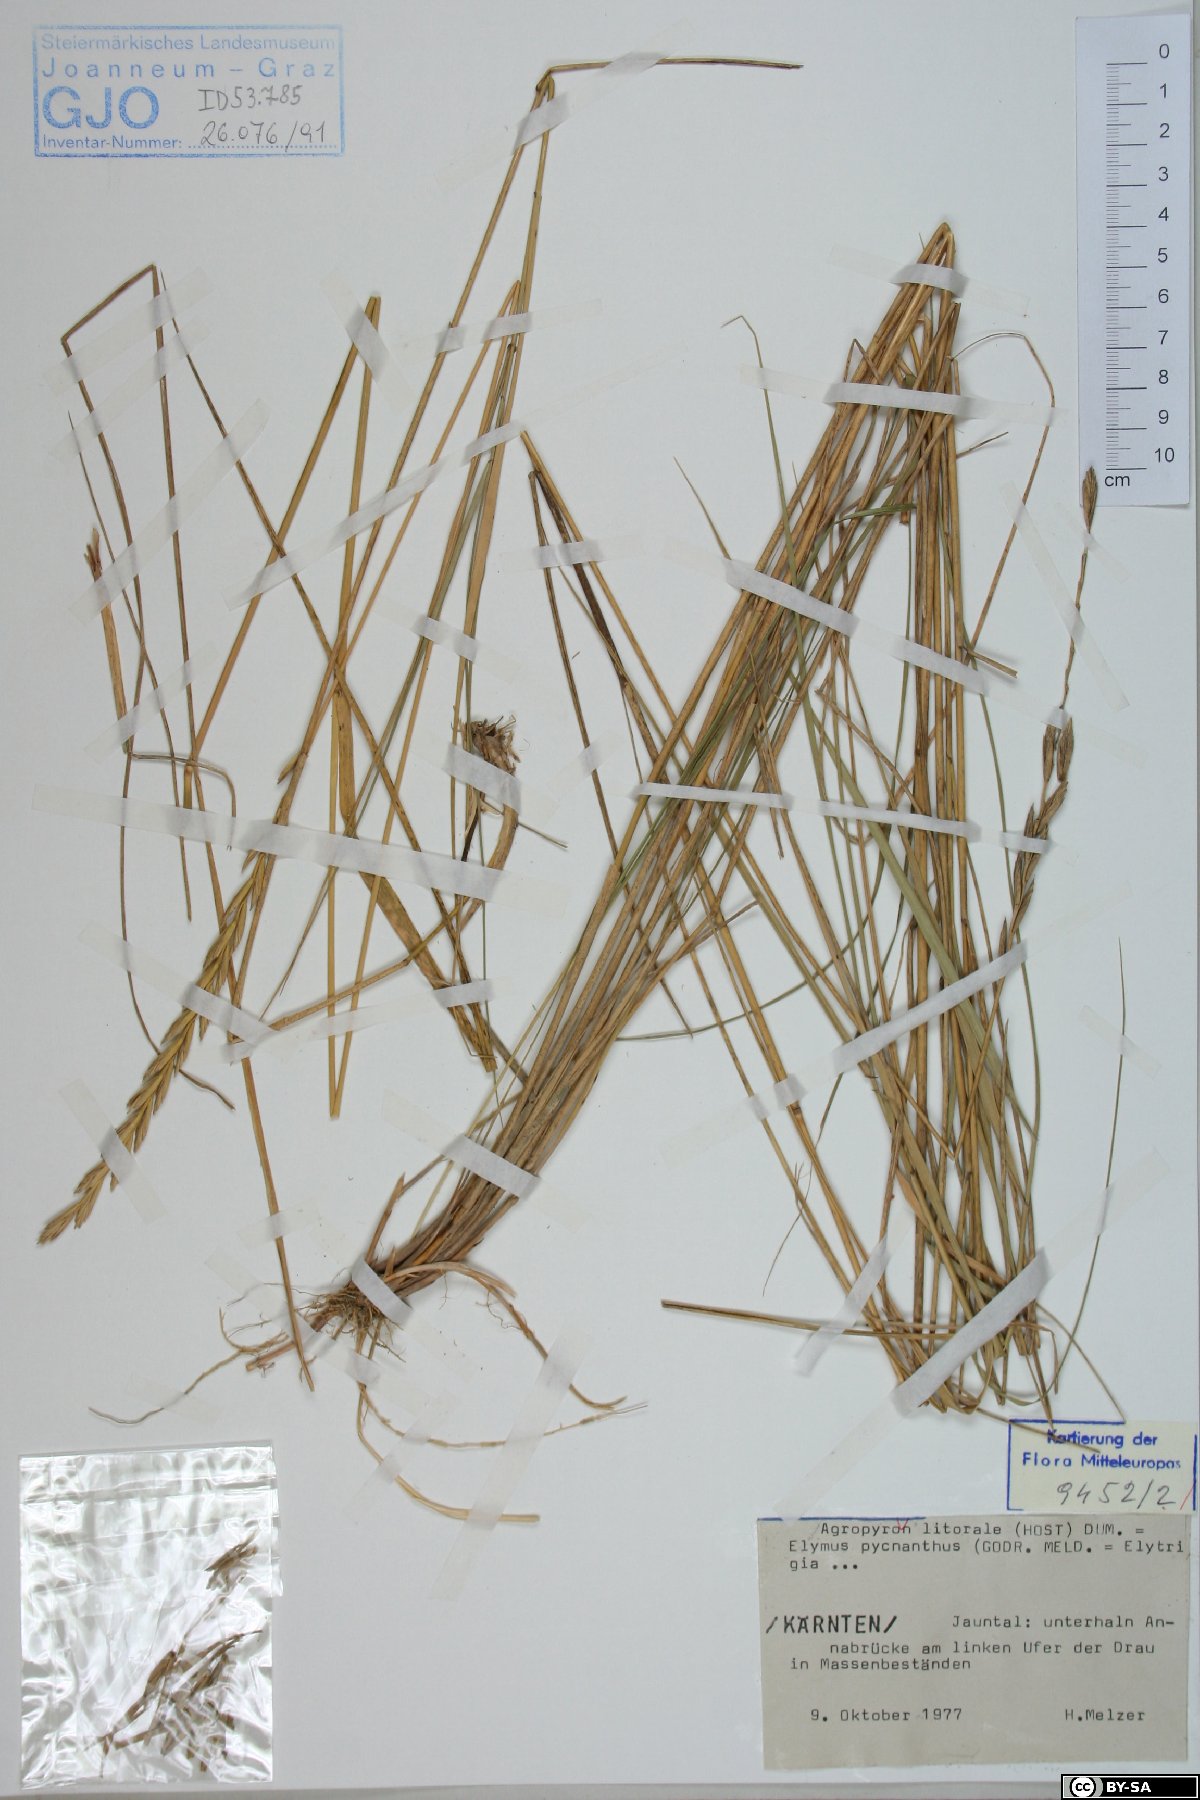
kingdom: Plantae
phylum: Tracheophyta
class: Liliopsida
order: Poales
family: Poaceae
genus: Elymus
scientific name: Elymus athericus
